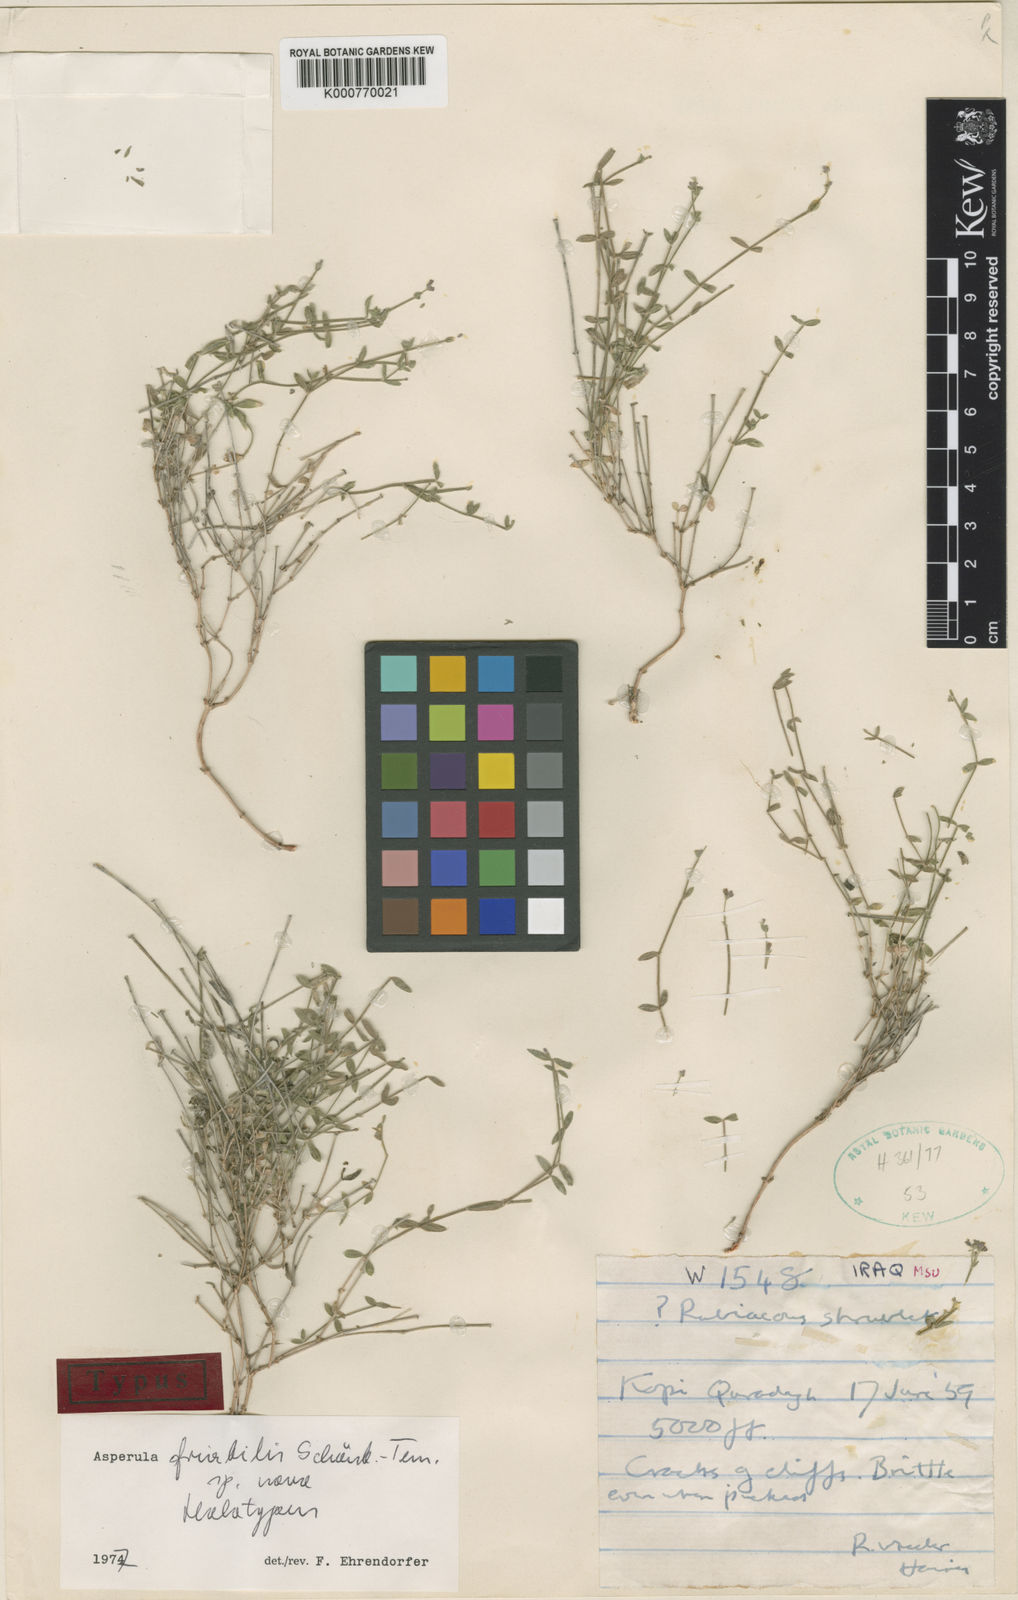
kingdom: Plantae
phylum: Tracheophyta
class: Magnoliopsida
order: Gentianales
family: Rubiaceae
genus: Asperula
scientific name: Asperula
